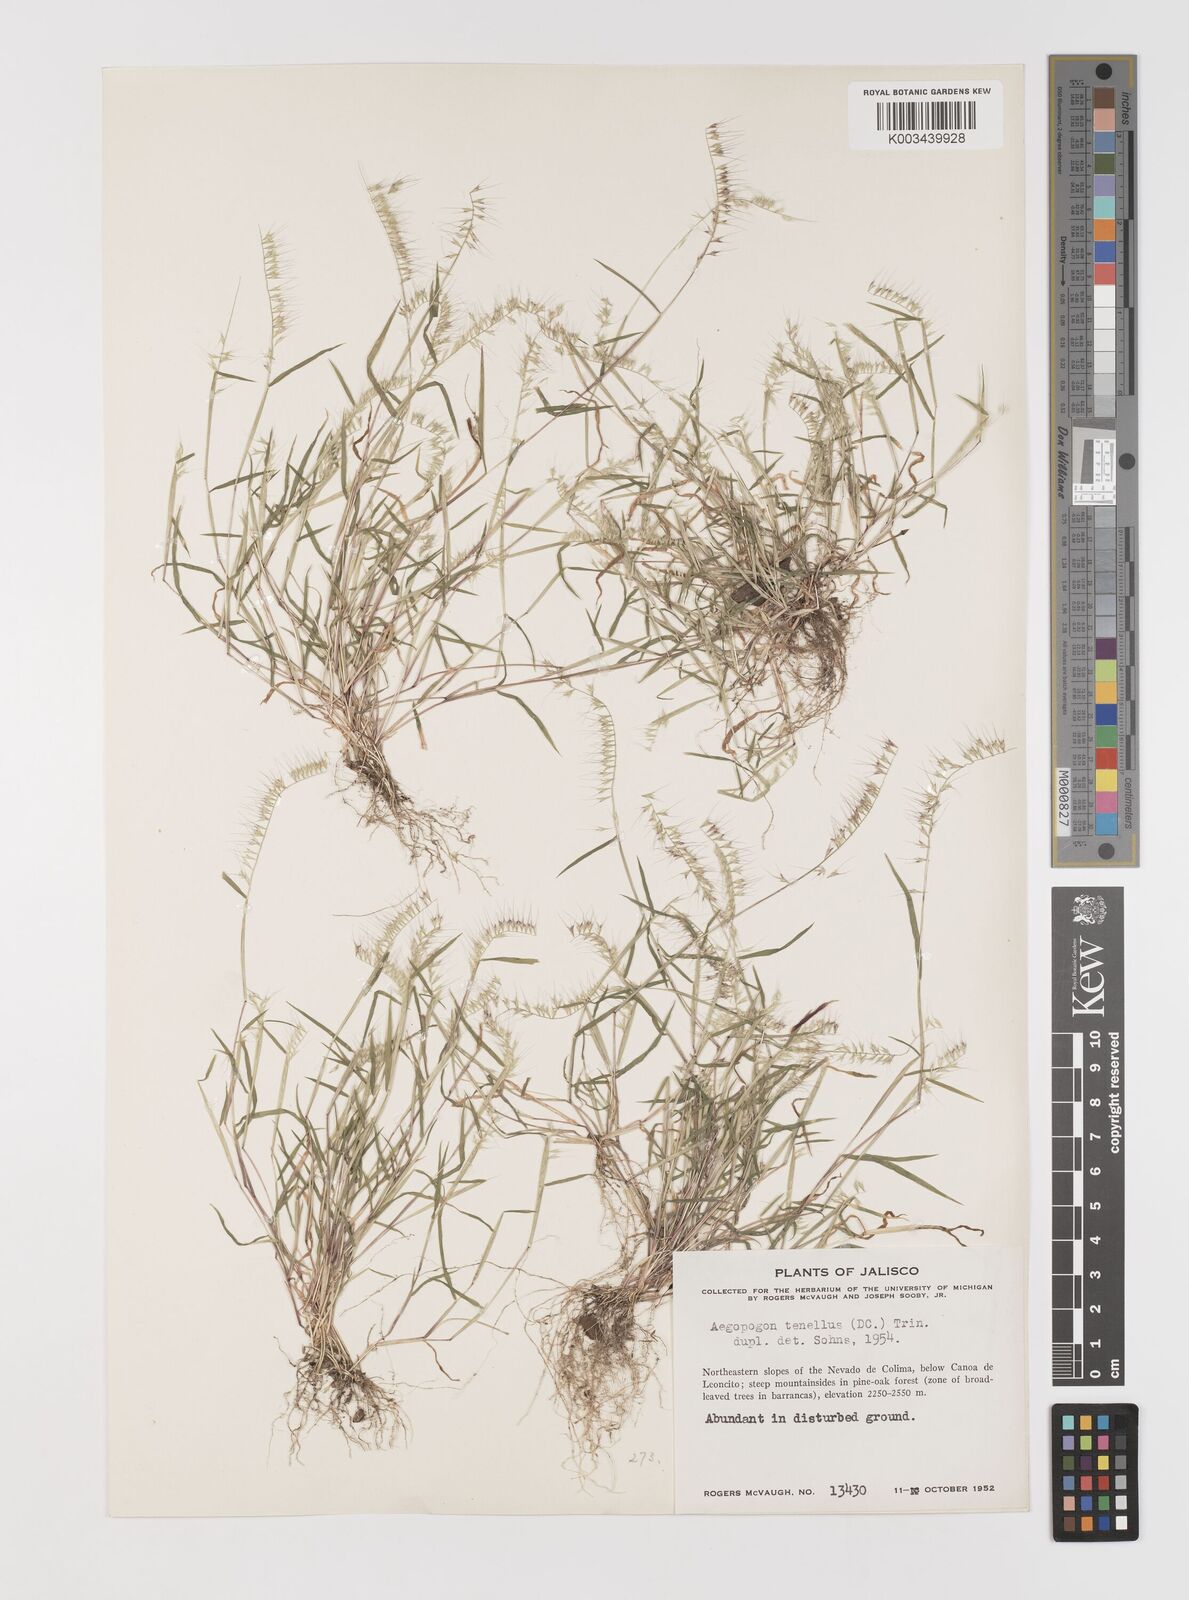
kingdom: Plantae
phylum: Tracheophyta
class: Liliopsida
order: Poales
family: Poaceae
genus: Muhlenbergia
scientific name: Muhlenbergia uniseta
